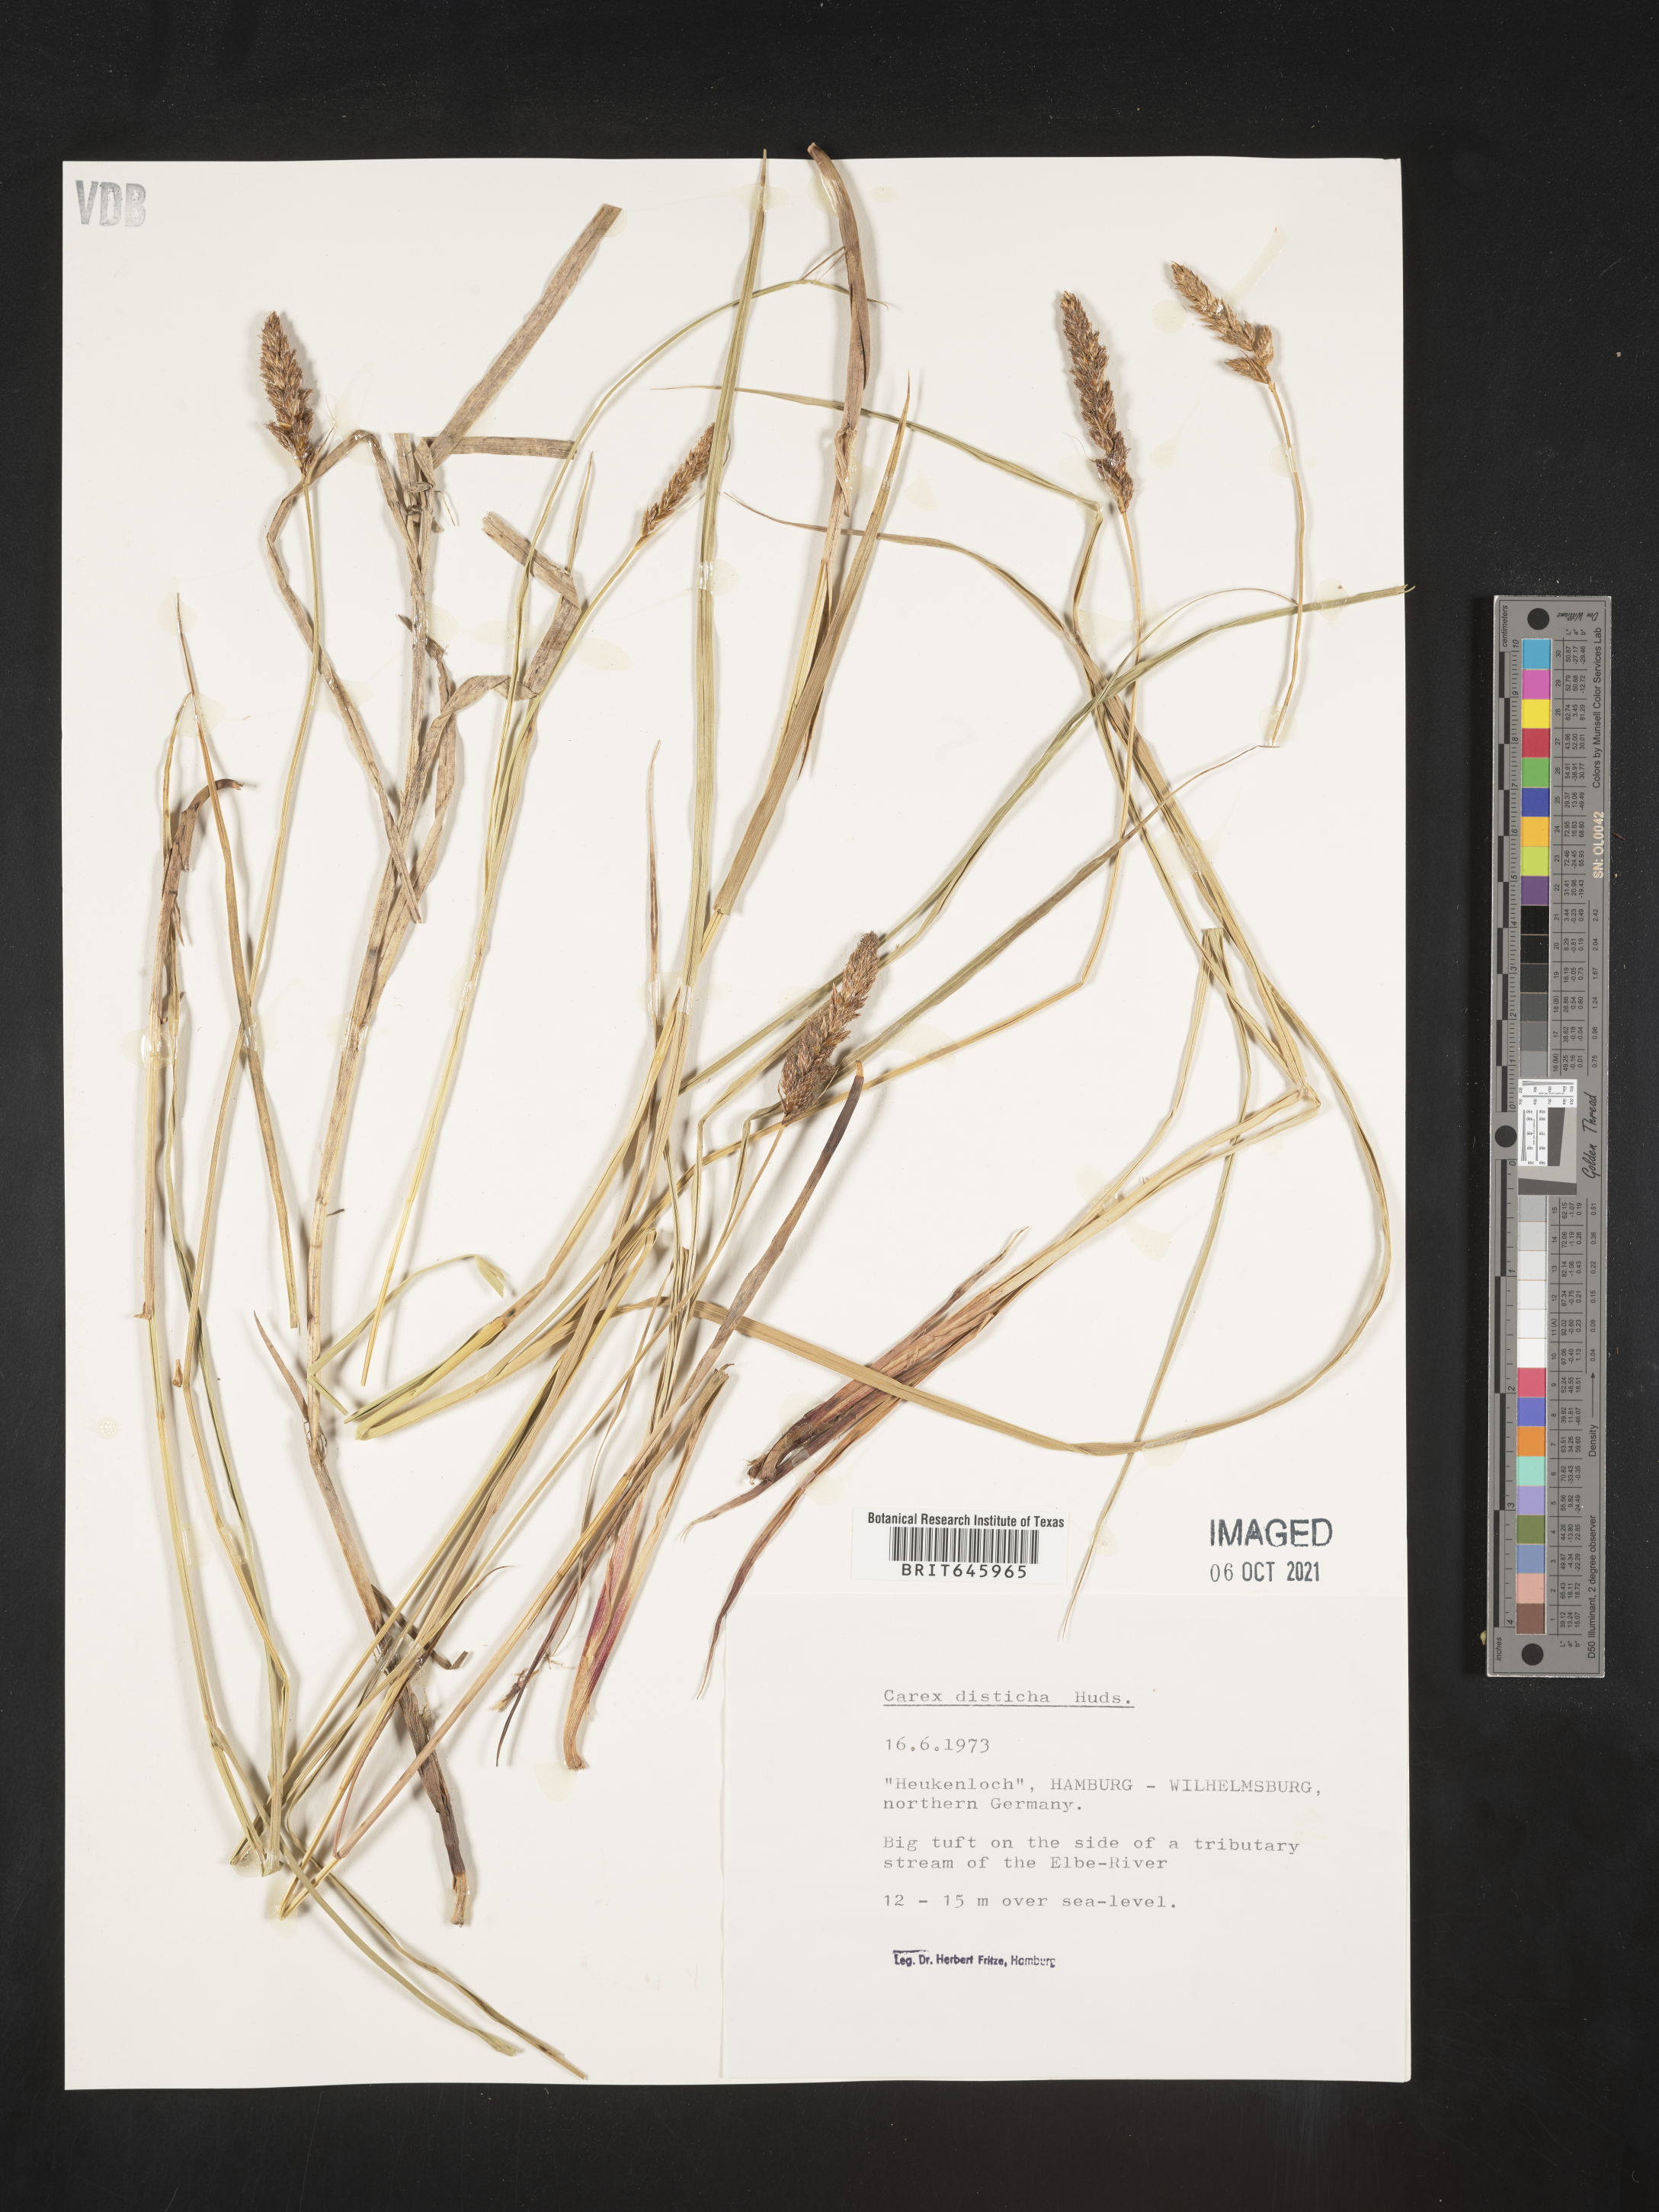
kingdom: Plantae
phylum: Tracheophyta
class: Liliopsida
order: Poales
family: Cyperaceae
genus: Carex
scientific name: Carex disticha
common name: Brown sedge
